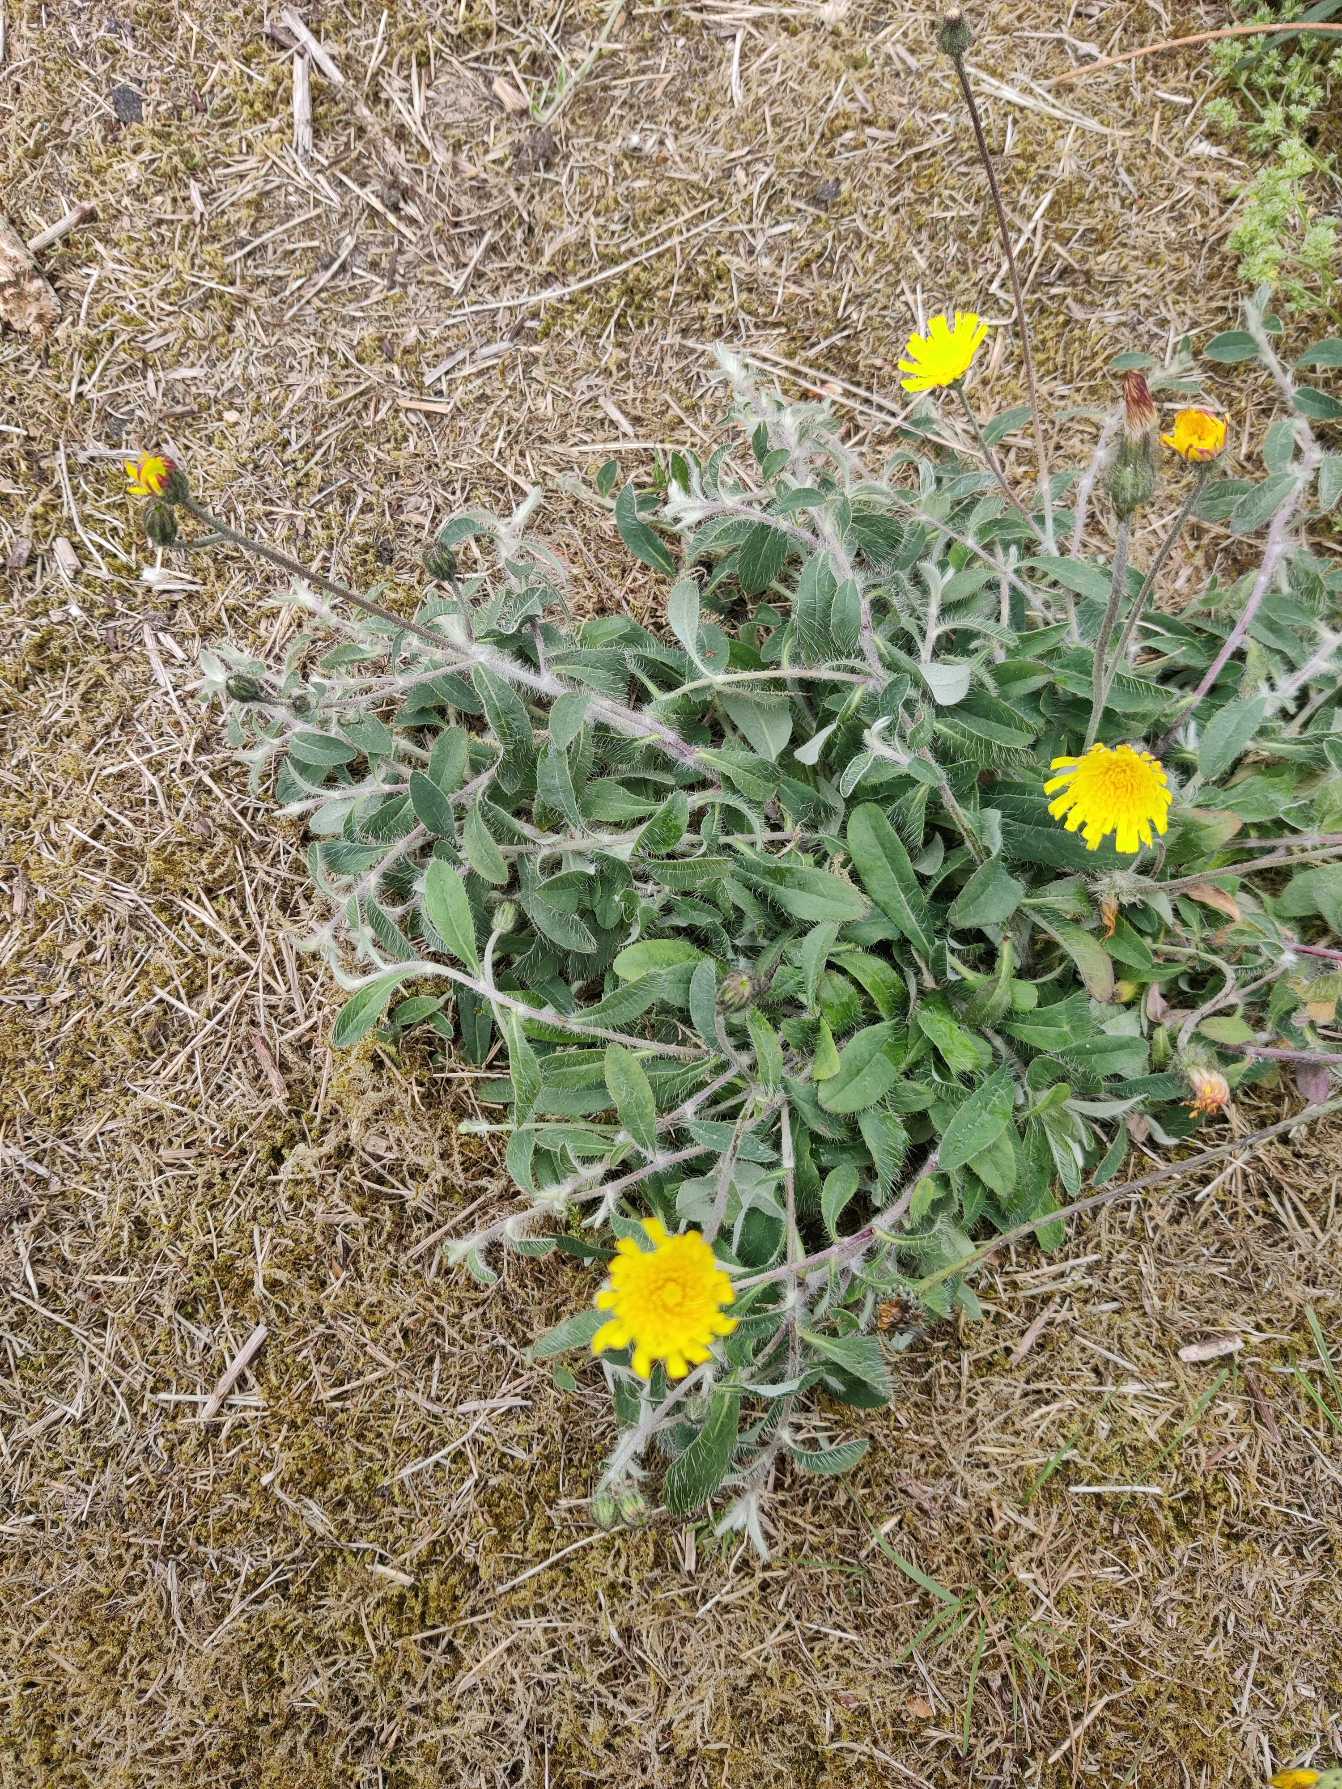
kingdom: Plantae
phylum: Tracheophyta
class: Magnoliopsida
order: Asterales
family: Asteraceae
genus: Pilosella
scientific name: Pilosella officinarum
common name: Håret høgeurt
